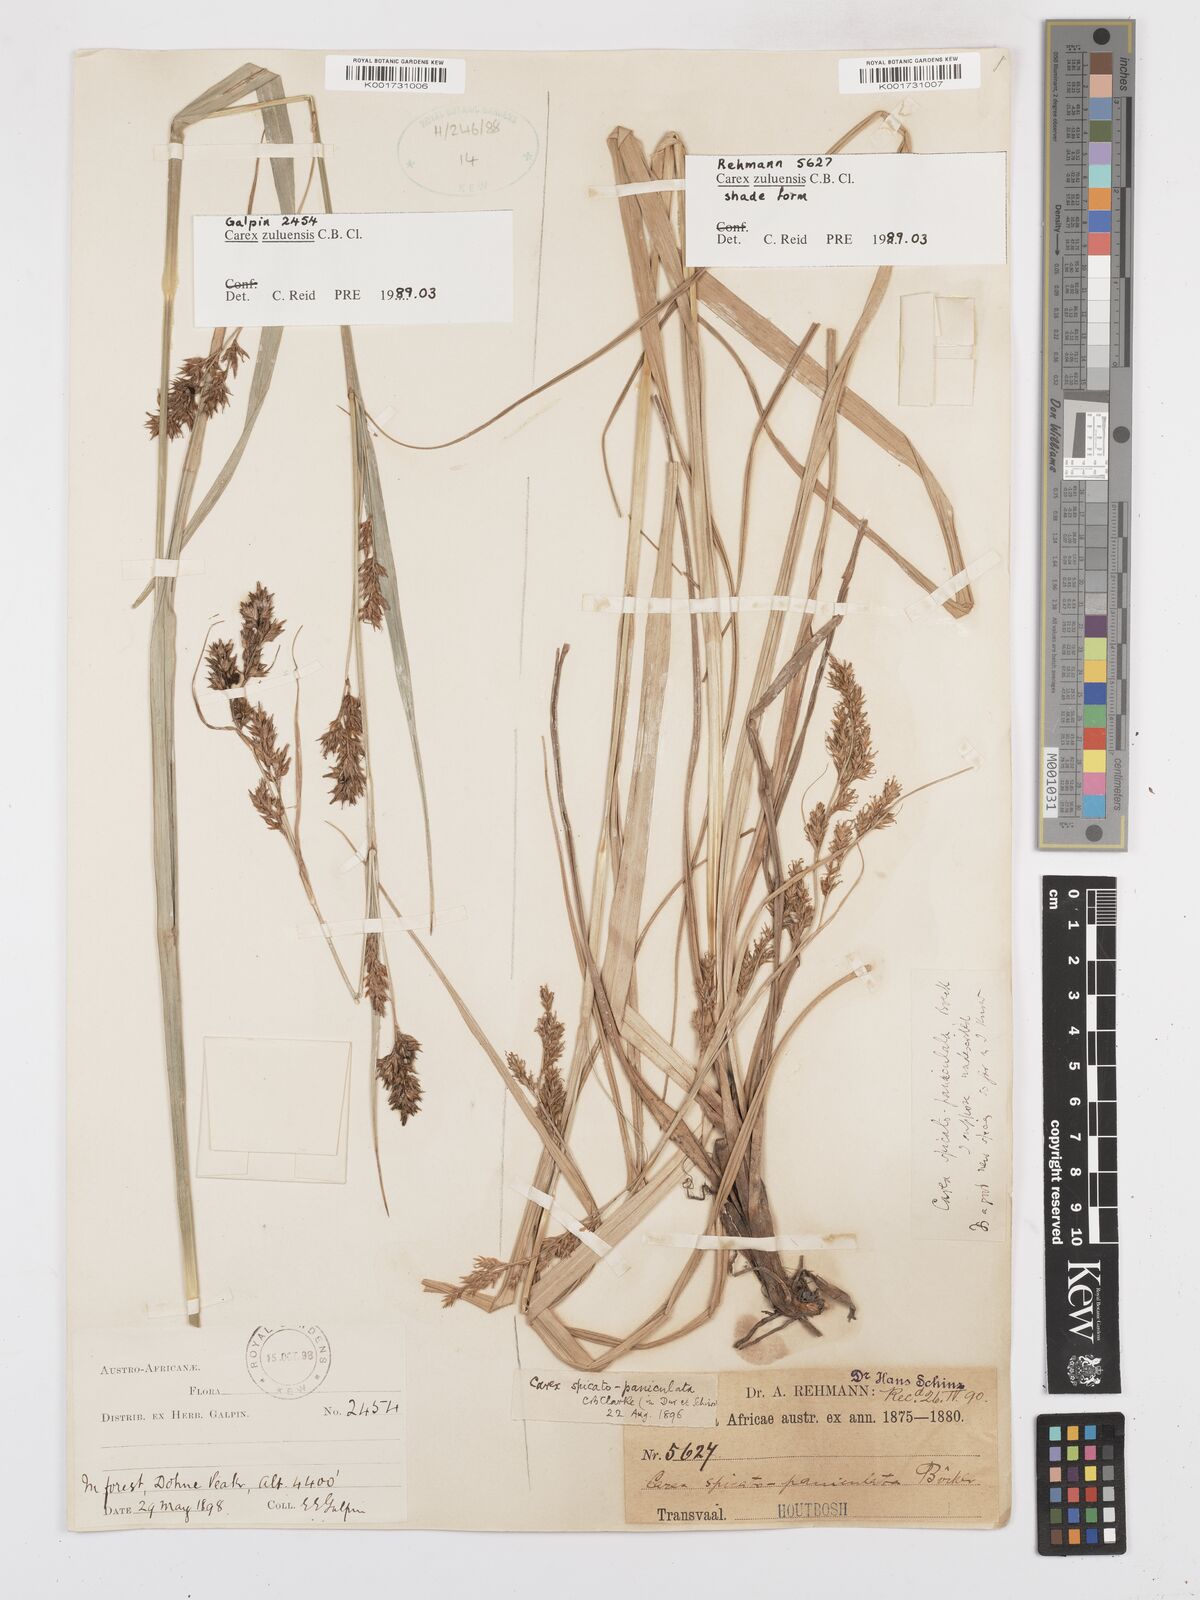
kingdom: Plantae
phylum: Tracheophyta
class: Liliopsida
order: Poales
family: Cyperaceae
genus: Carex
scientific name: Carex steudneri
